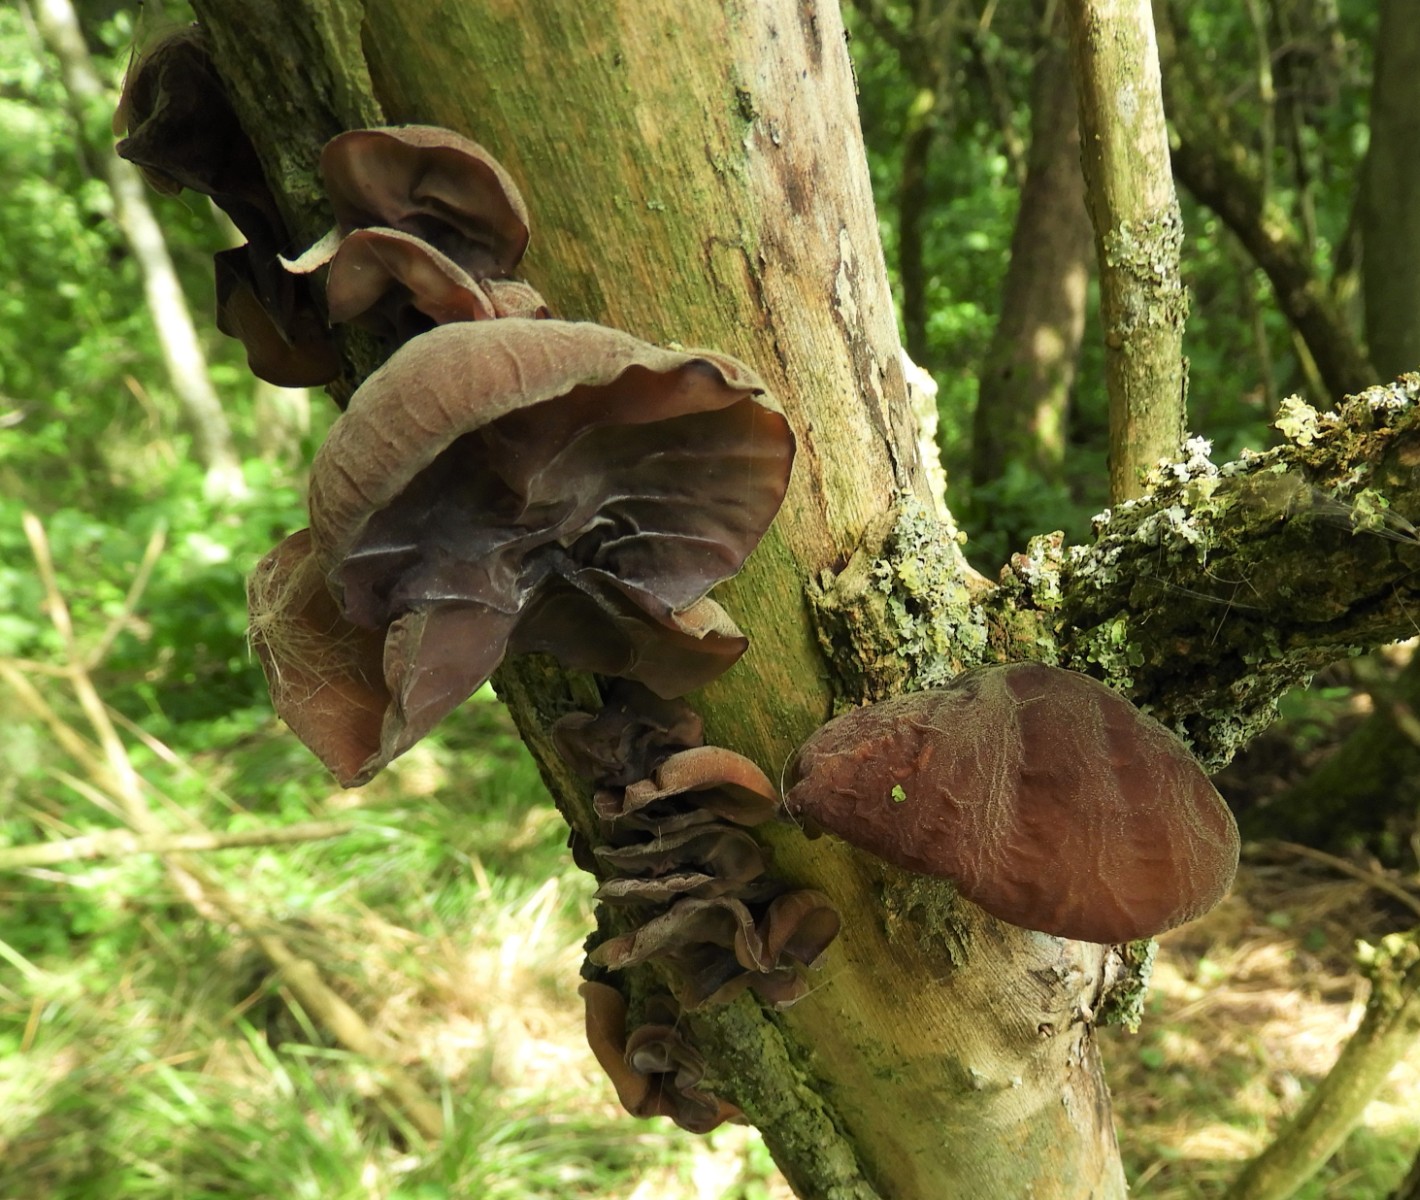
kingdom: Fungi
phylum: Basidiomycota
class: Agaricomycetes
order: Auriculariales
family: Auriculariaceae
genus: Auricularia
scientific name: Auricularia auricula-judae
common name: almindelig judasøre
